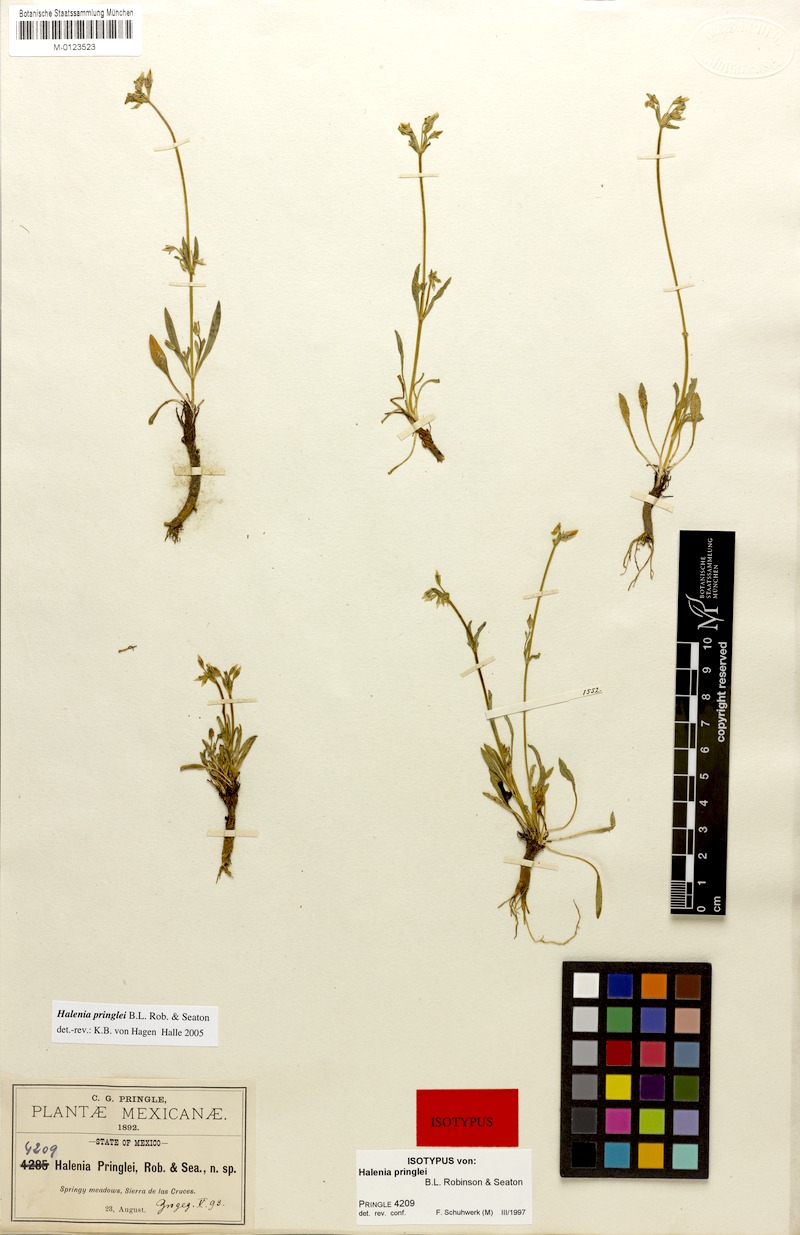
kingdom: Plantae
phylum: Tracheophyta
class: Magnoliopsida
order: Gentianales
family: Gentianaceae
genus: Halenia
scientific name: Halenia pringlei
